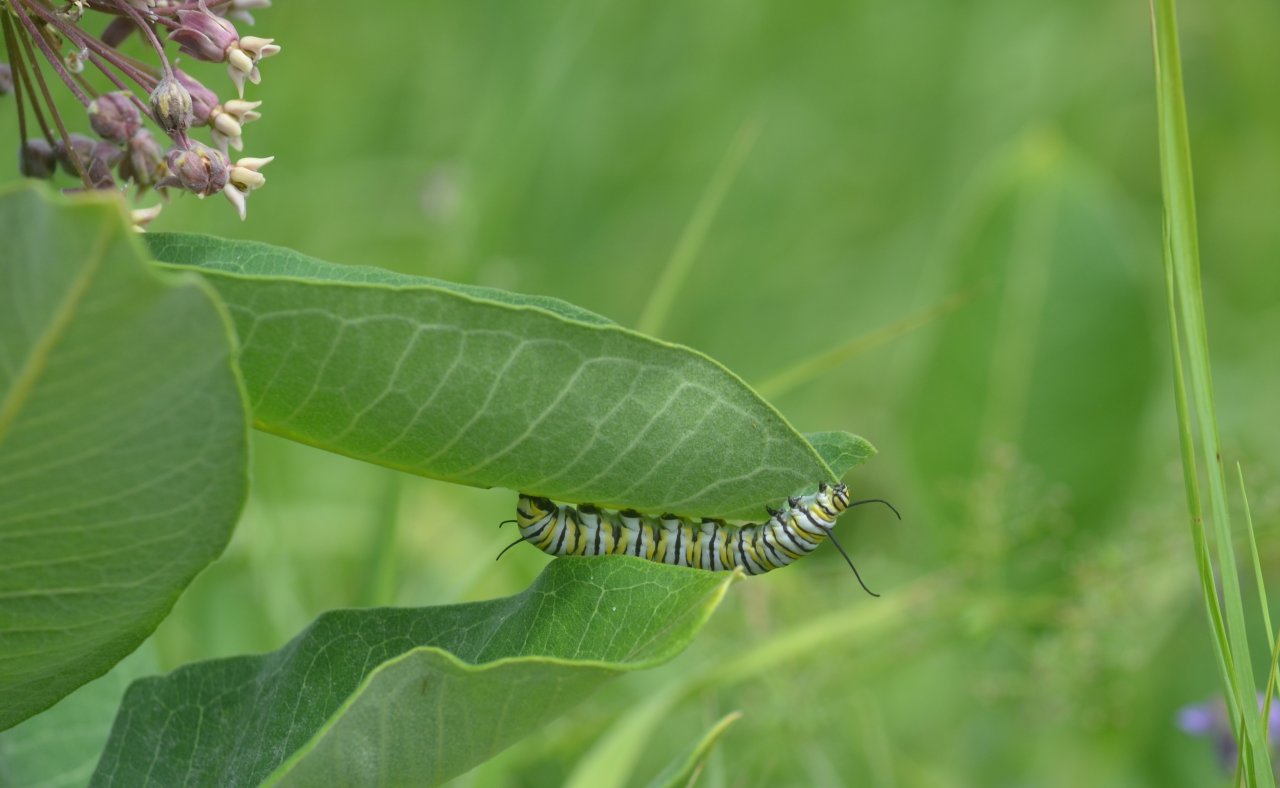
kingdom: Animalia
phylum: Arthropoda
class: Insecta
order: Lepidoptera
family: Nymphalidae
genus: Danaus
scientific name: Danaus plexippus
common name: Monarch
